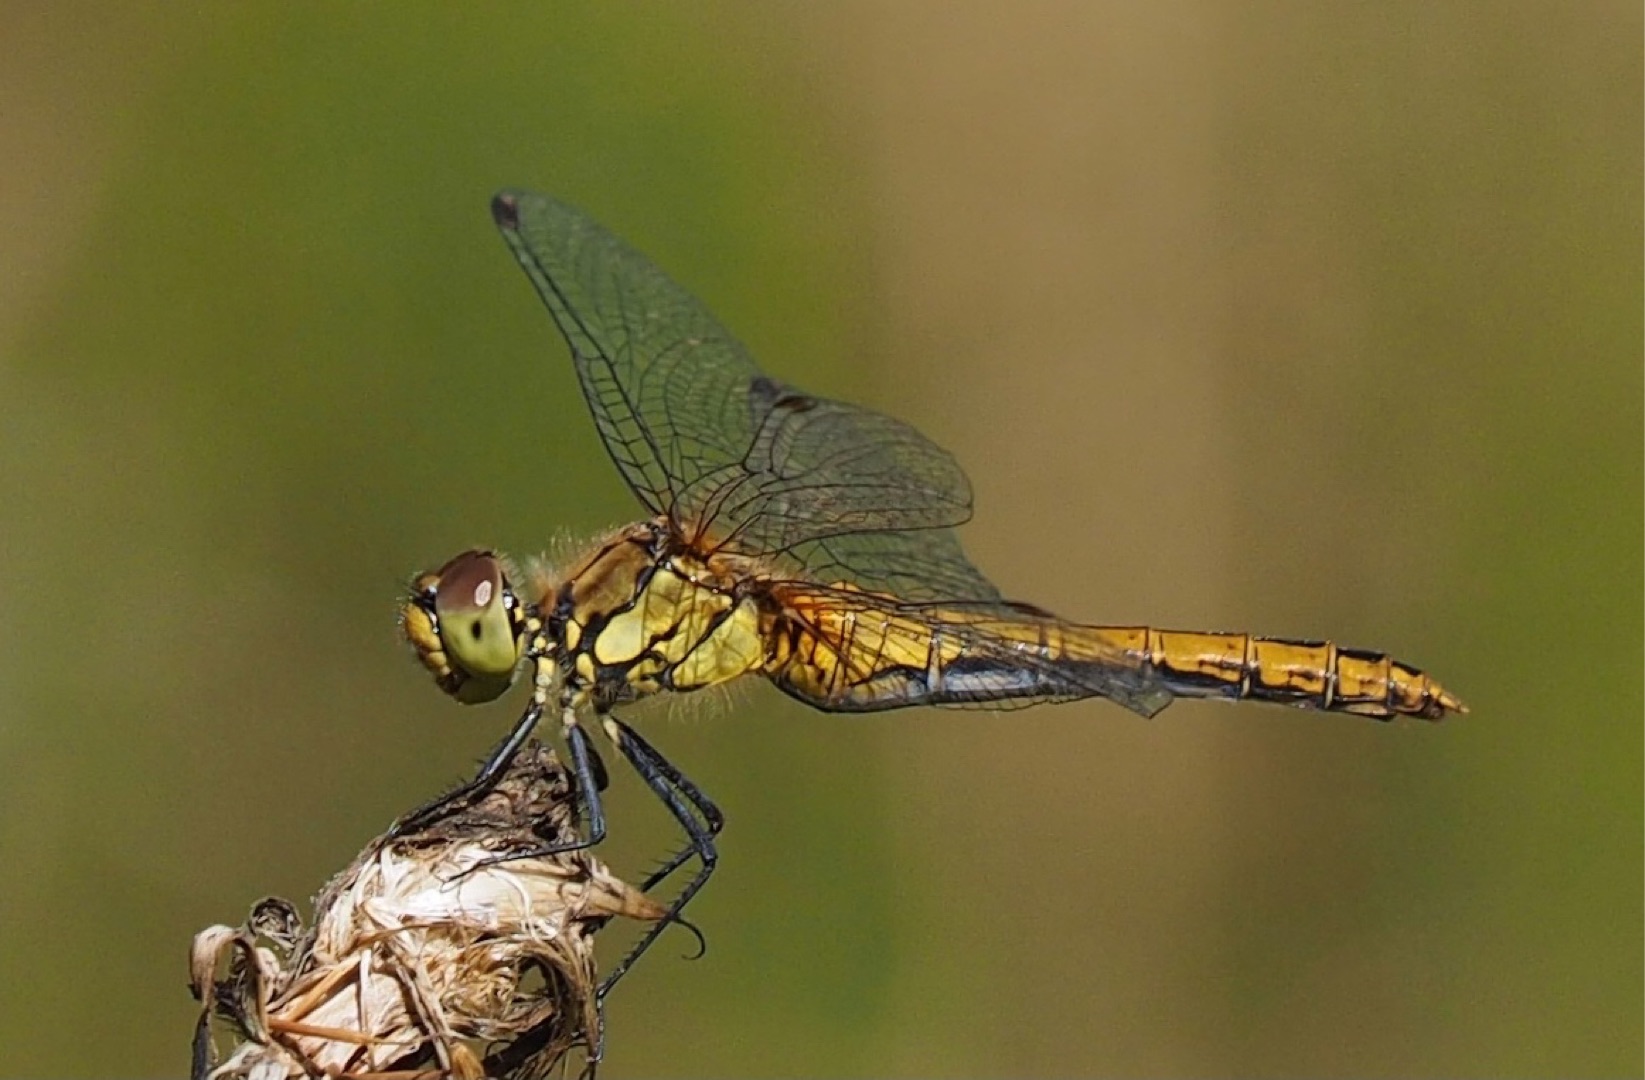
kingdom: Animalia
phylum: Arthropoda
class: Insecta
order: Odonata
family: Libellulidae
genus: Sympetrum
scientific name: Sympetrum sanguineum
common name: Blodrød hedelibel
